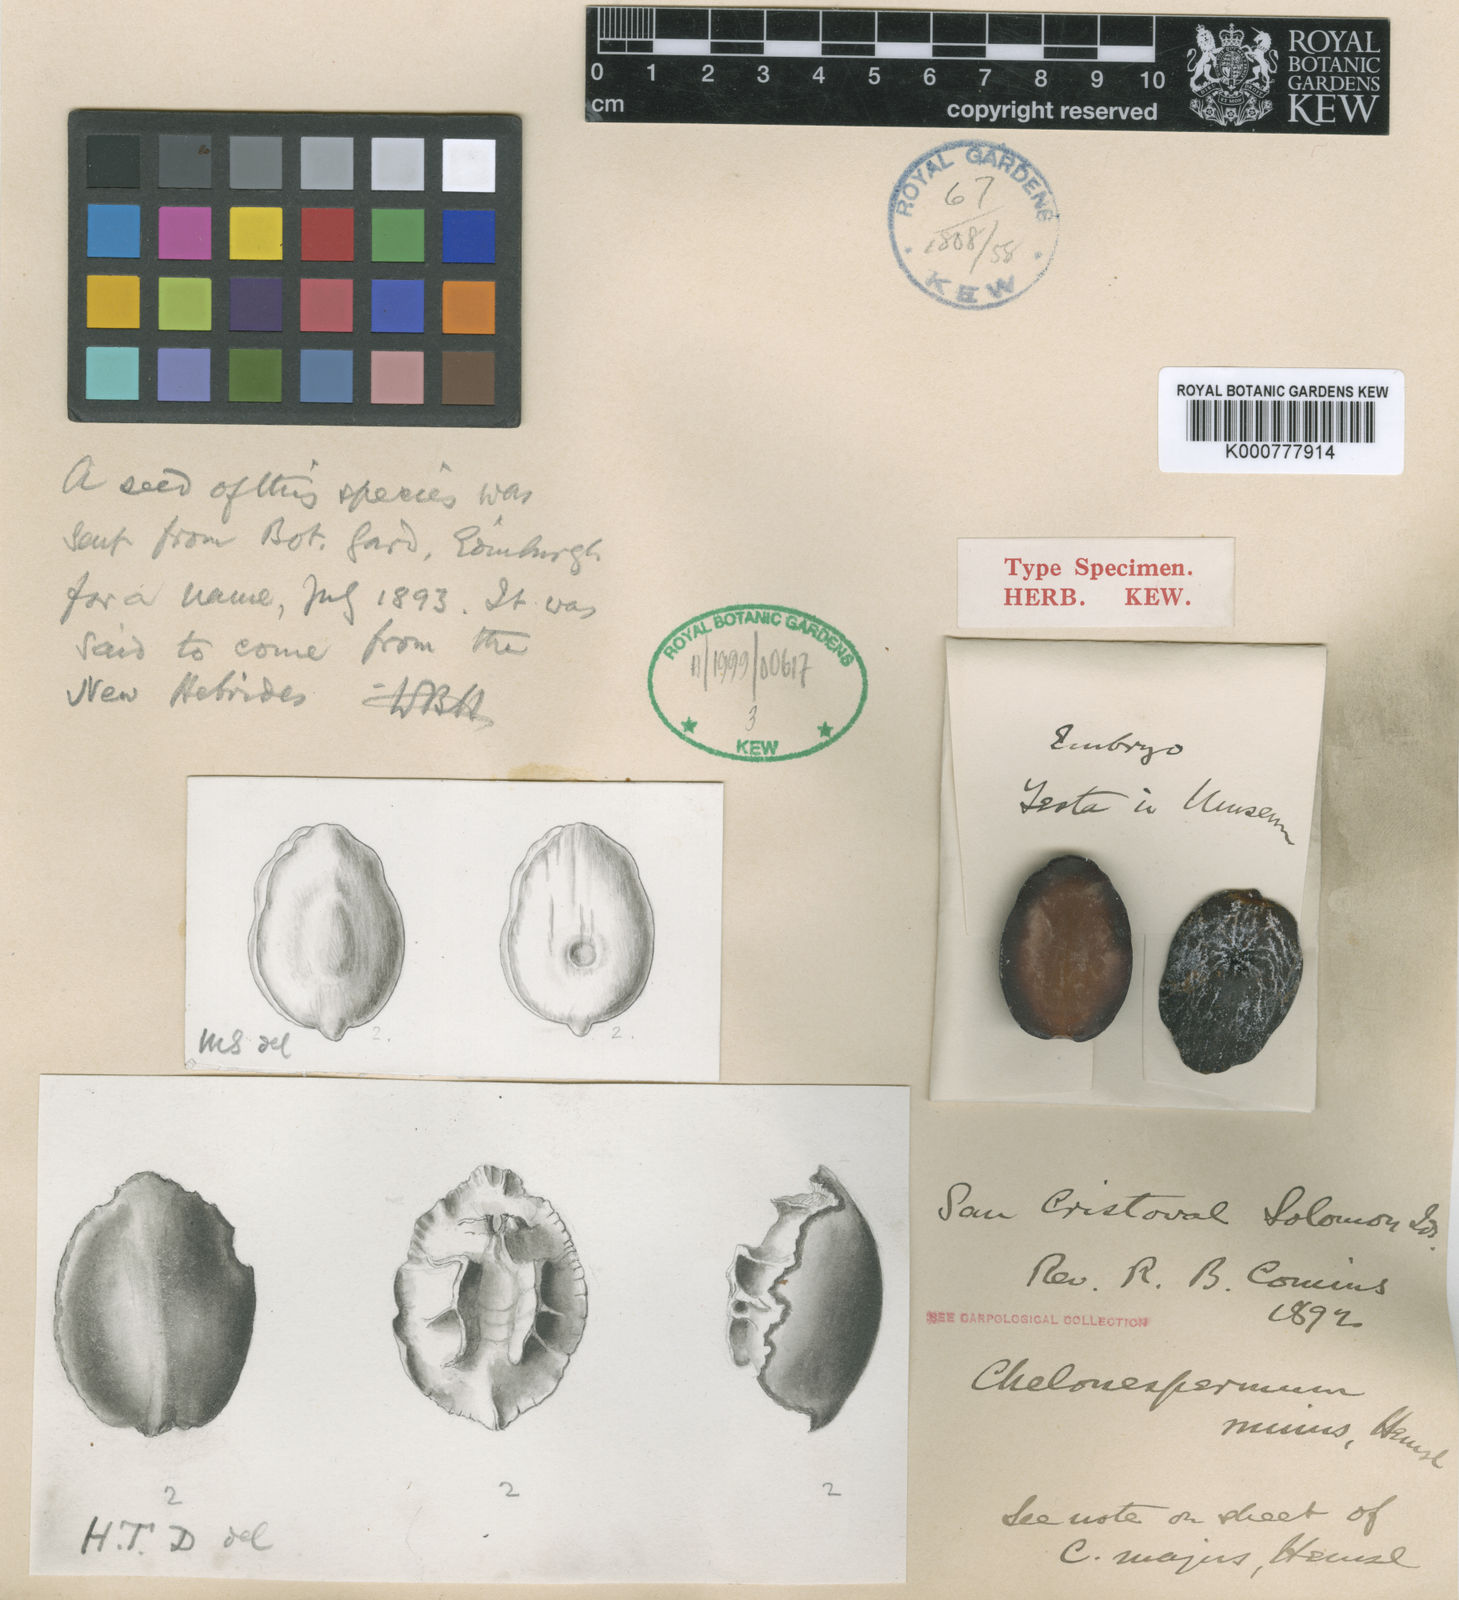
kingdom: Plantae
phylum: Tracheophyta
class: Magnoliopsida
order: Ericales
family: Sapotaceae
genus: Burckella
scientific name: Burckella
